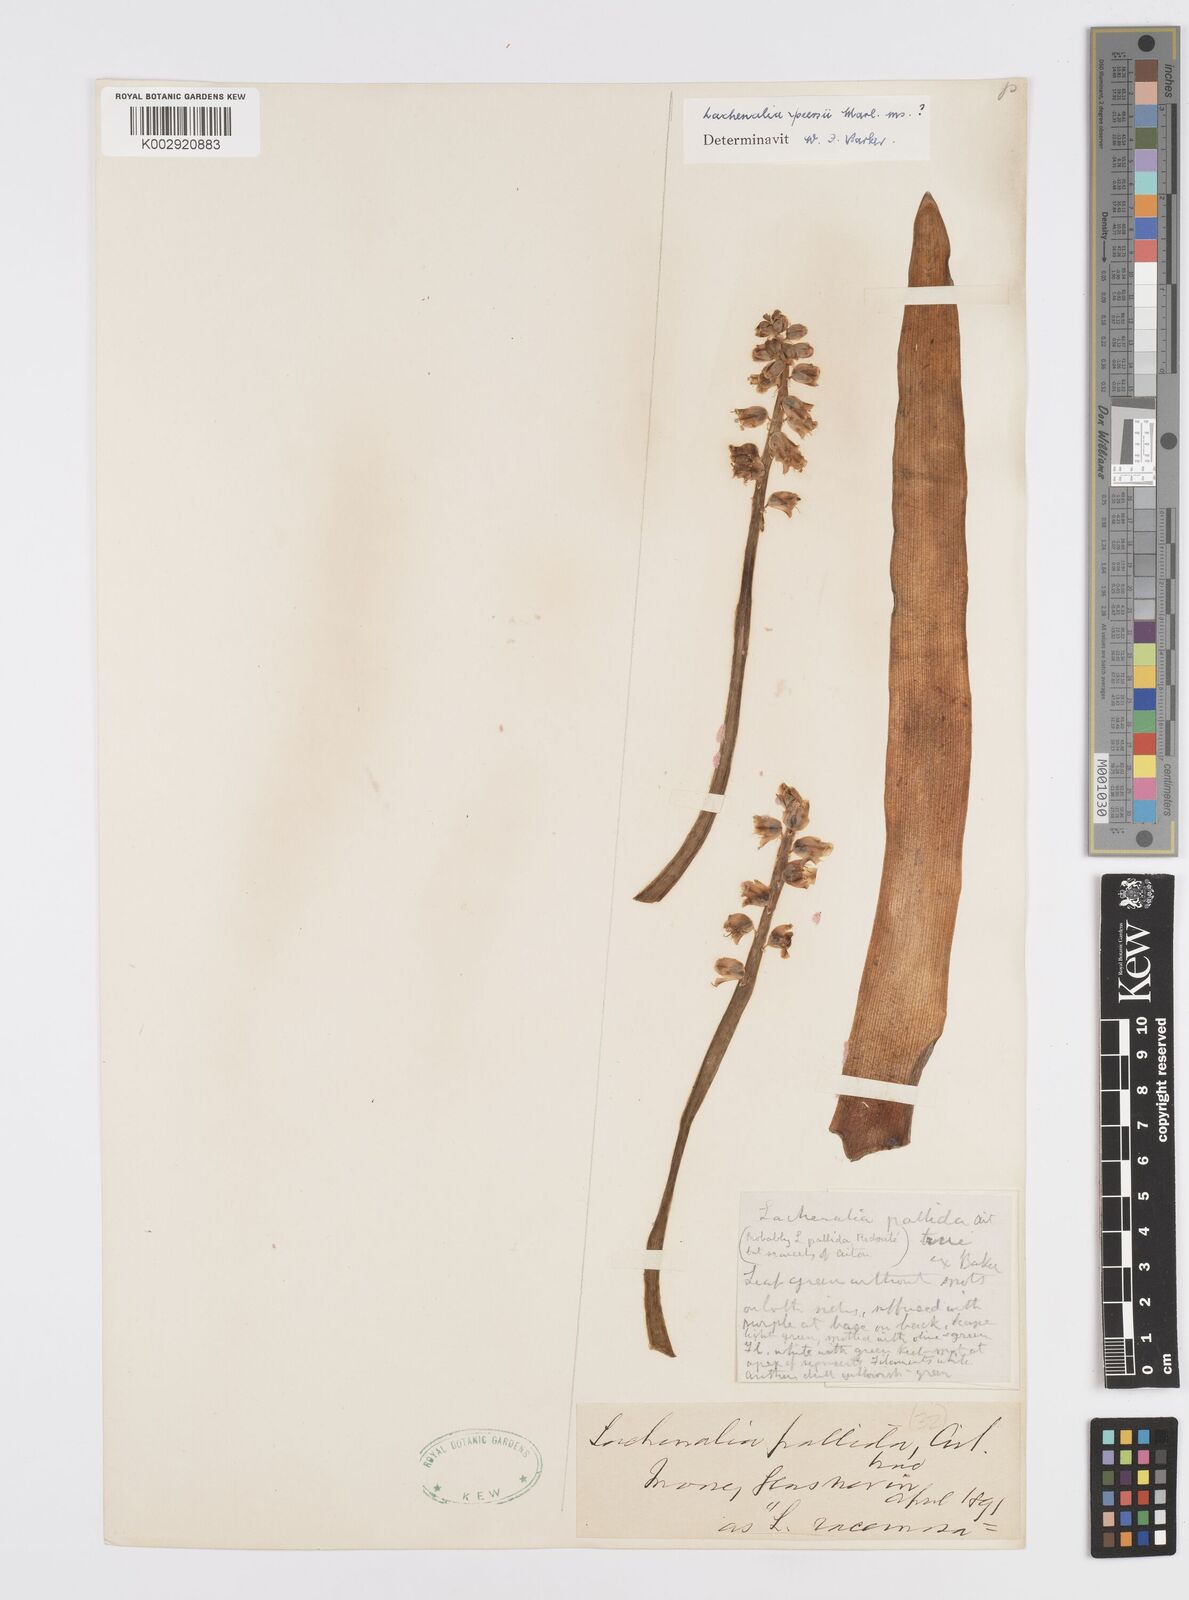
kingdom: Plantae
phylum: Tracheophyta
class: Liliopsida
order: Asparagales
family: Asparagaceae
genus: Lachenalia
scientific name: Lachenalia peersii
